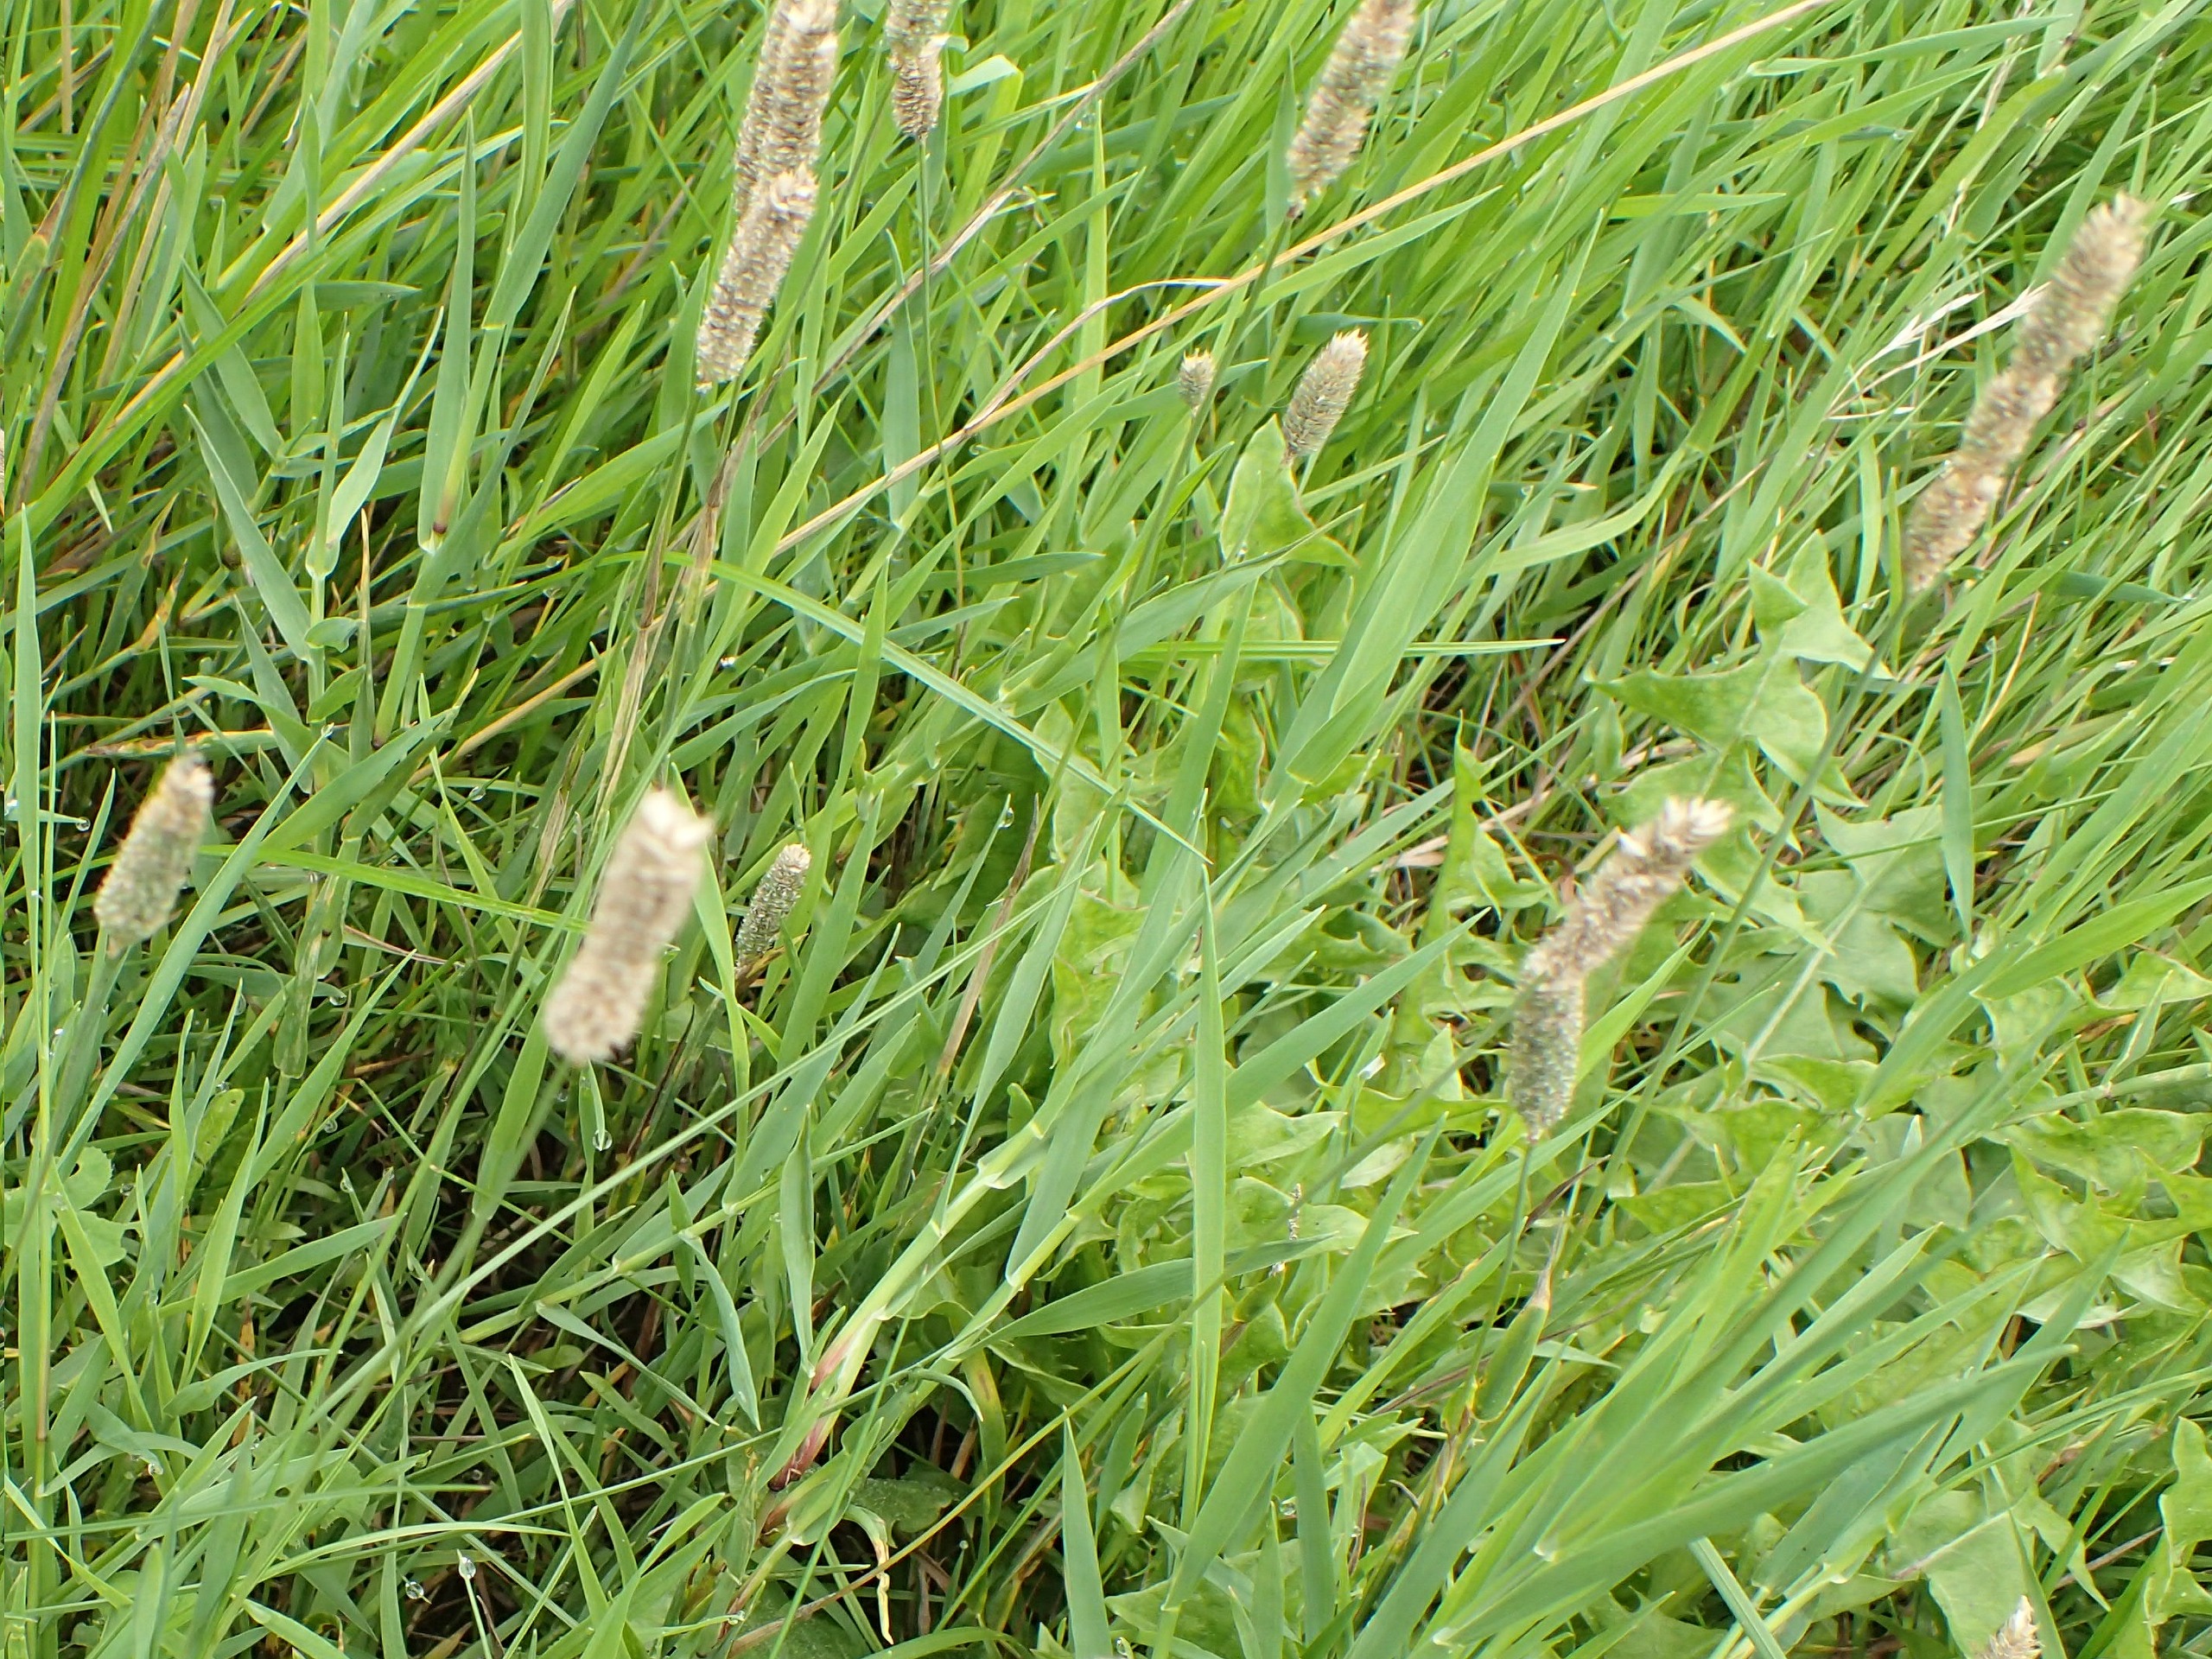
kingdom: Plantae
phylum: Tracheophyta
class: Liliopsida
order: Poales
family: Poaceae
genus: Phleum
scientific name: Phleum pratense
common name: Knold-rottehale
